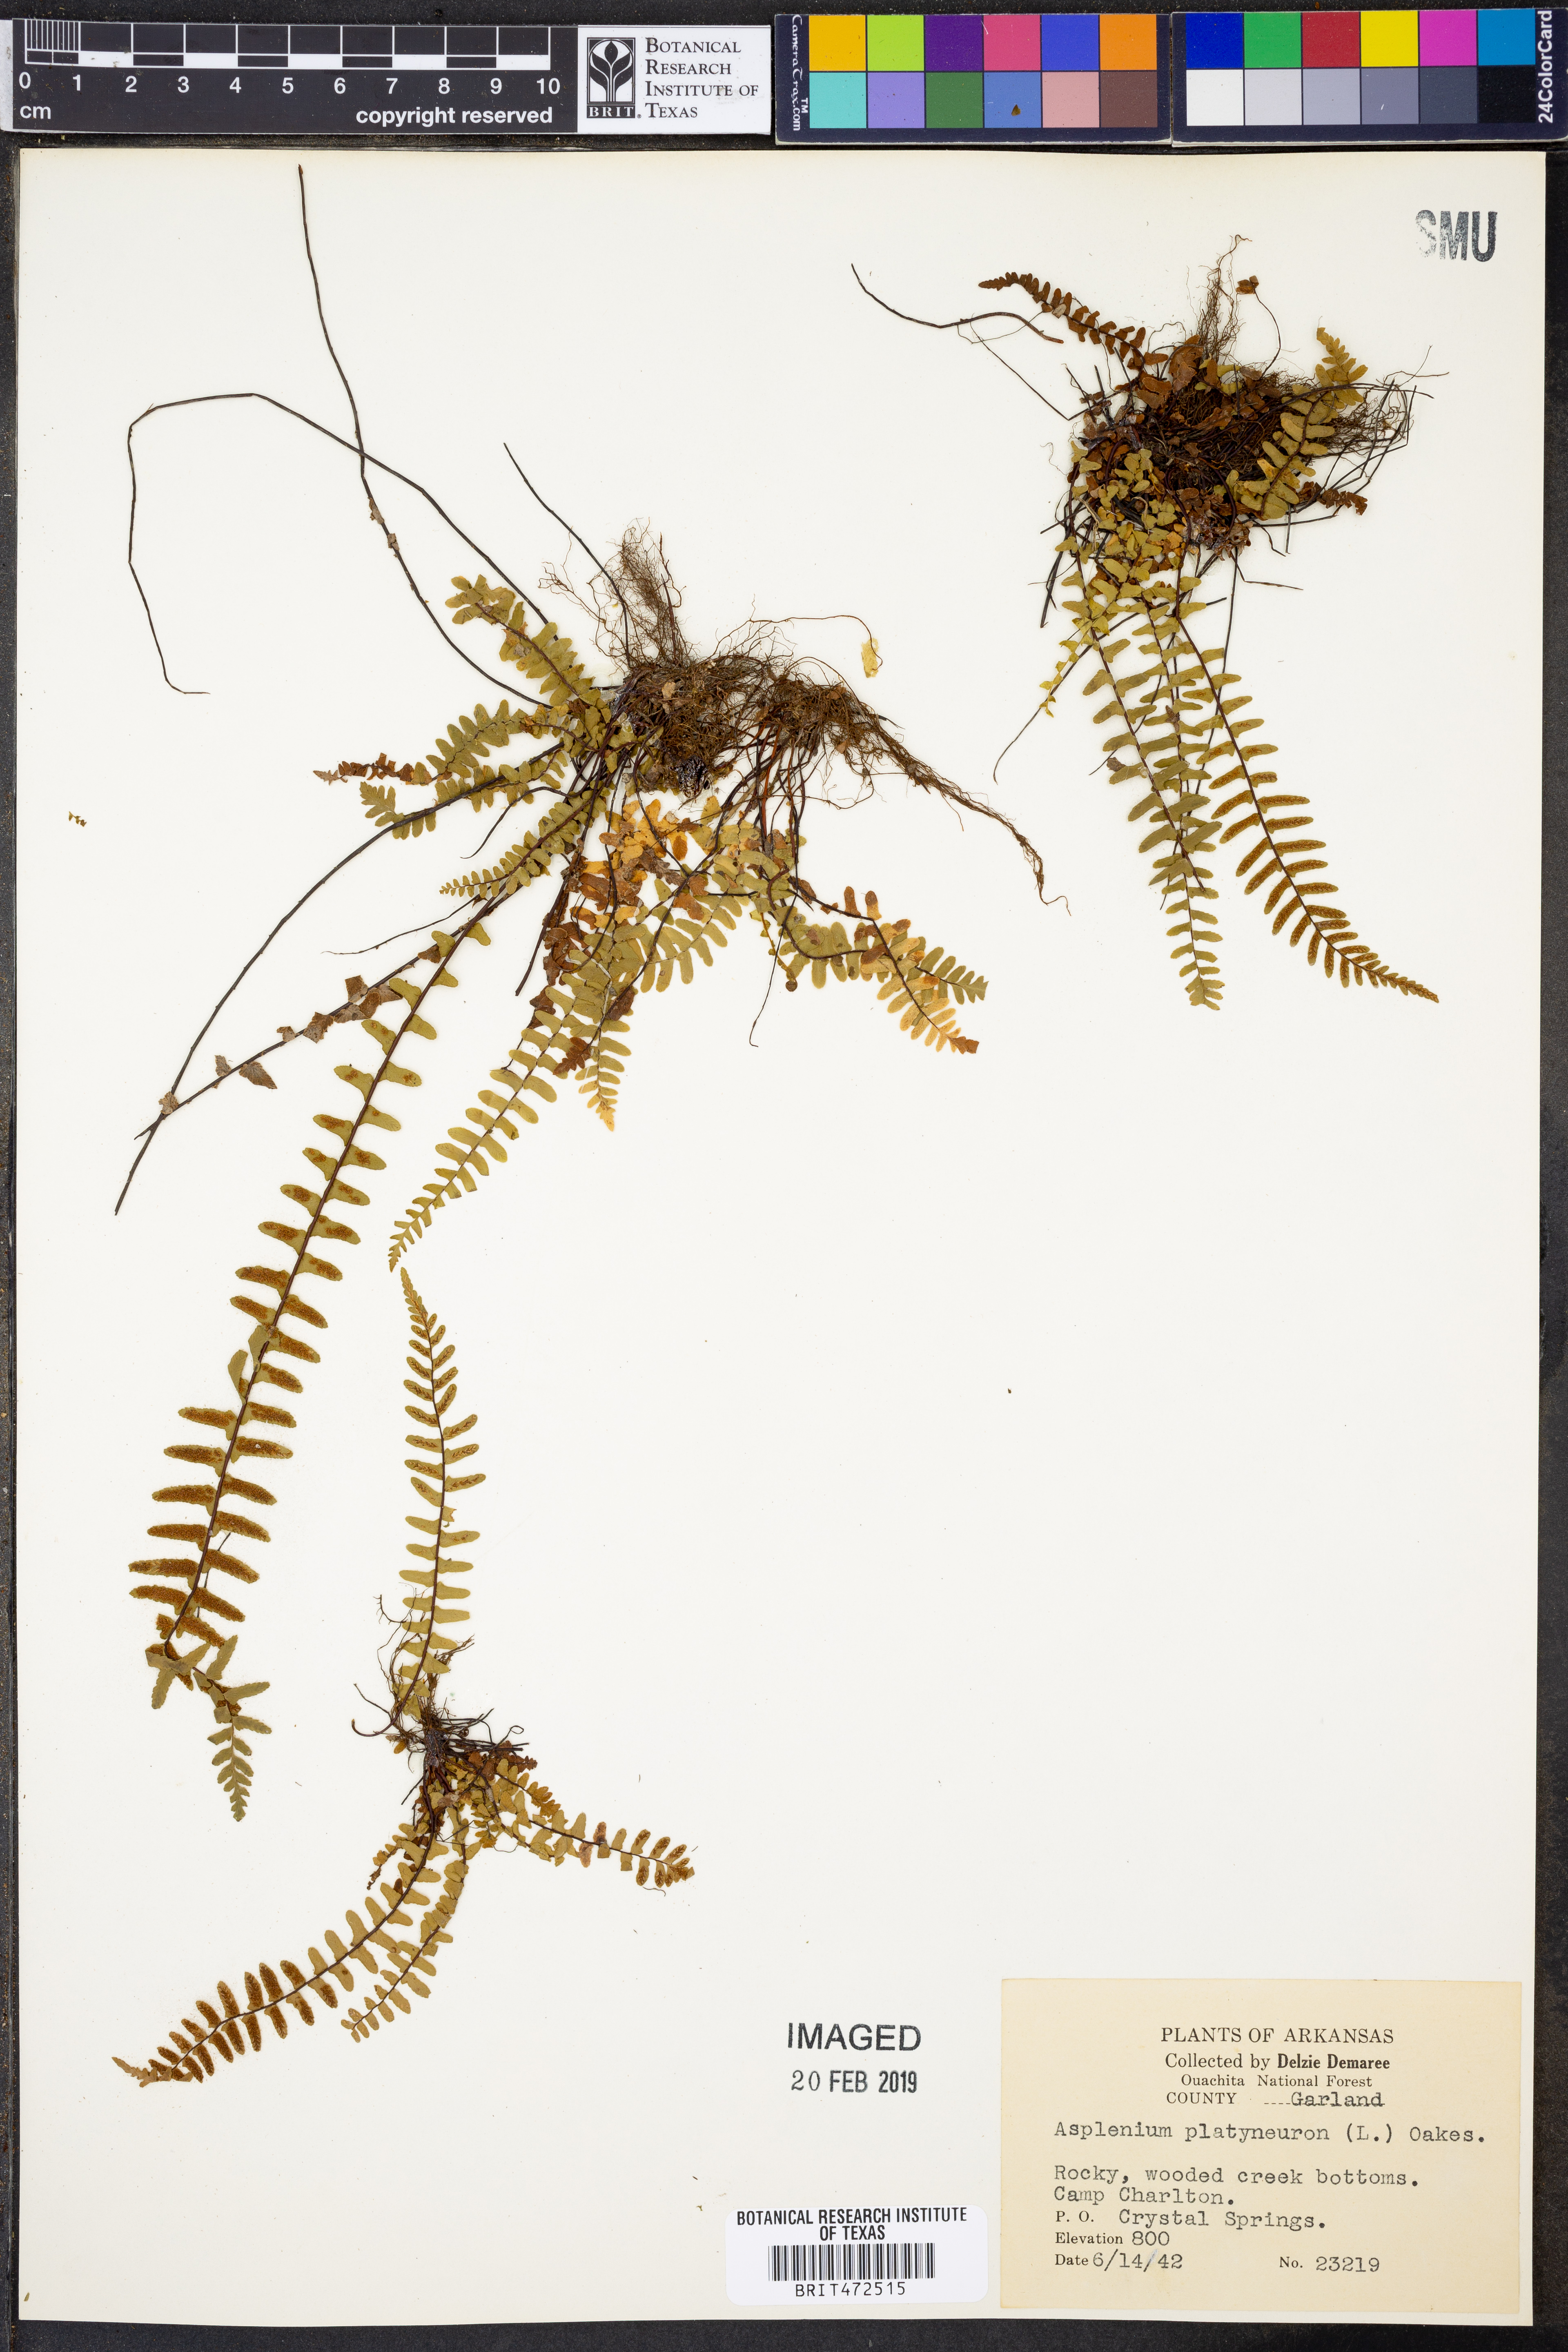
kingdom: Plantae
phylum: Tracheophyta
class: Polypodiopsida
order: Polypodiales
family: Aspleniaceae
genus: Asplenium
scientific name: Asplenium platyneuron
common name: Ebony spleenwort
